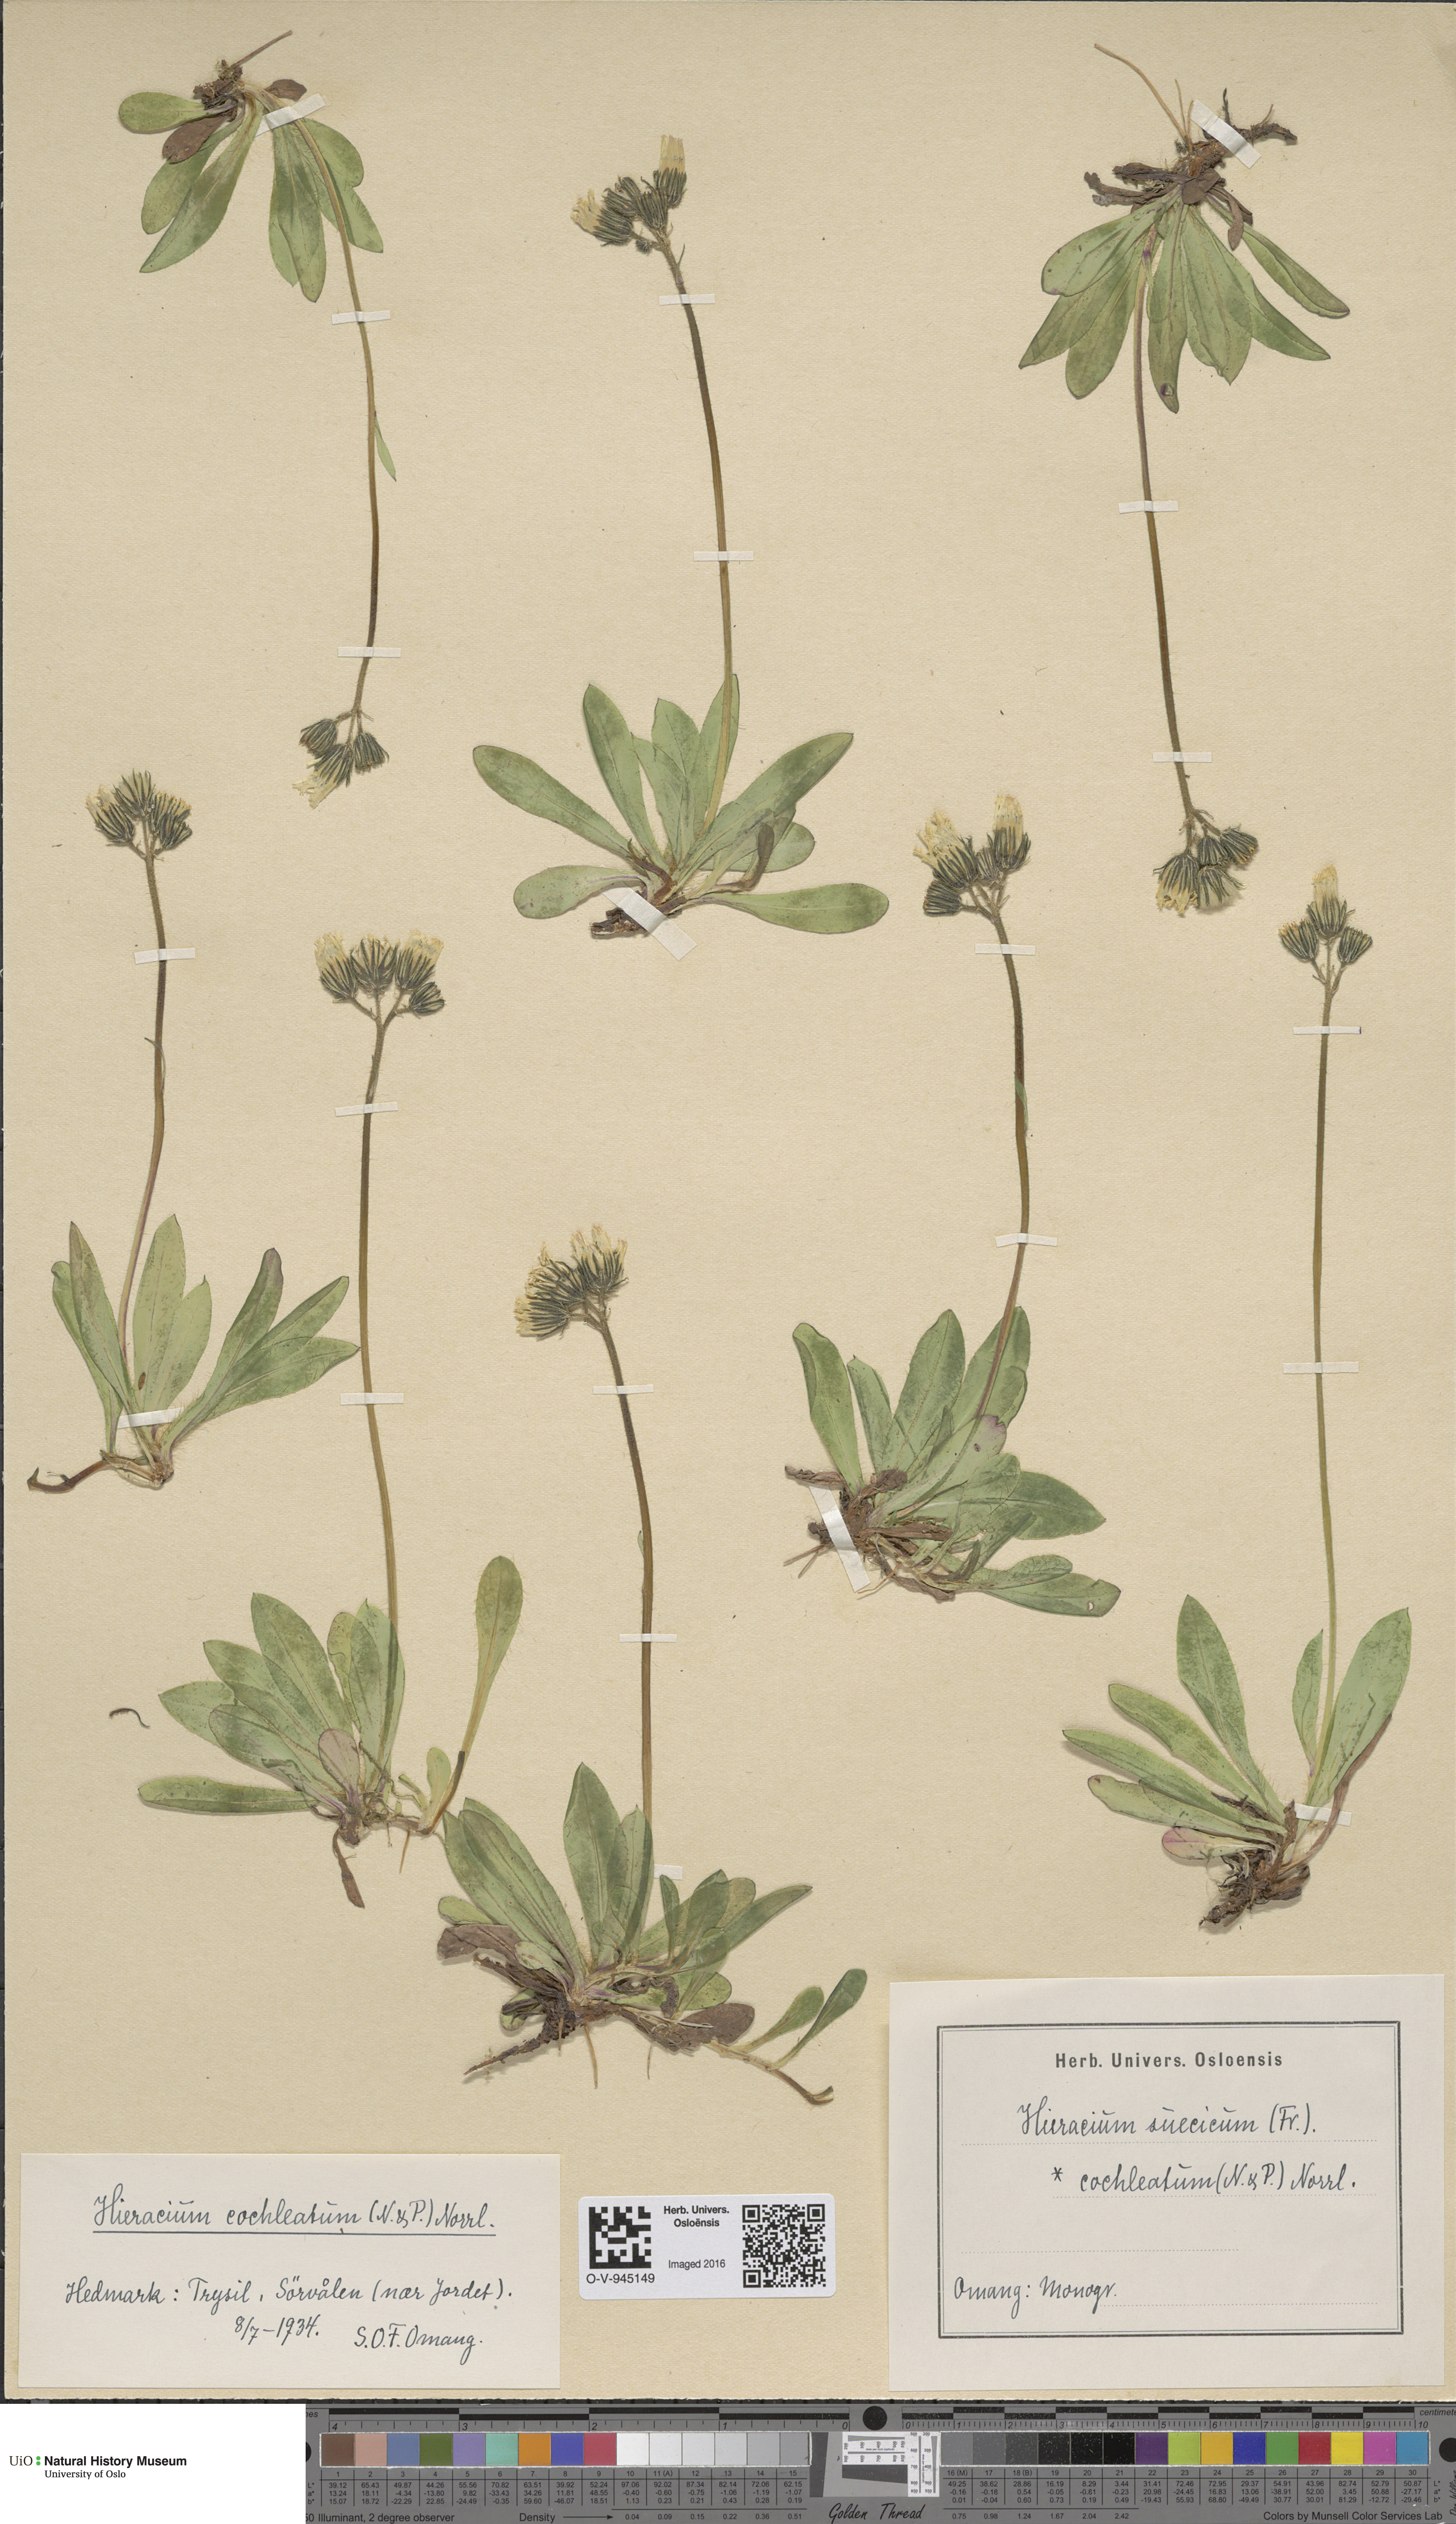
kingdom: Plantae
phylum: Tracheophyta
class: Magnoliopsida
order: Asterales
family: Asteraceae
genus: Pilosella
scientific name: Pilosella dubia
